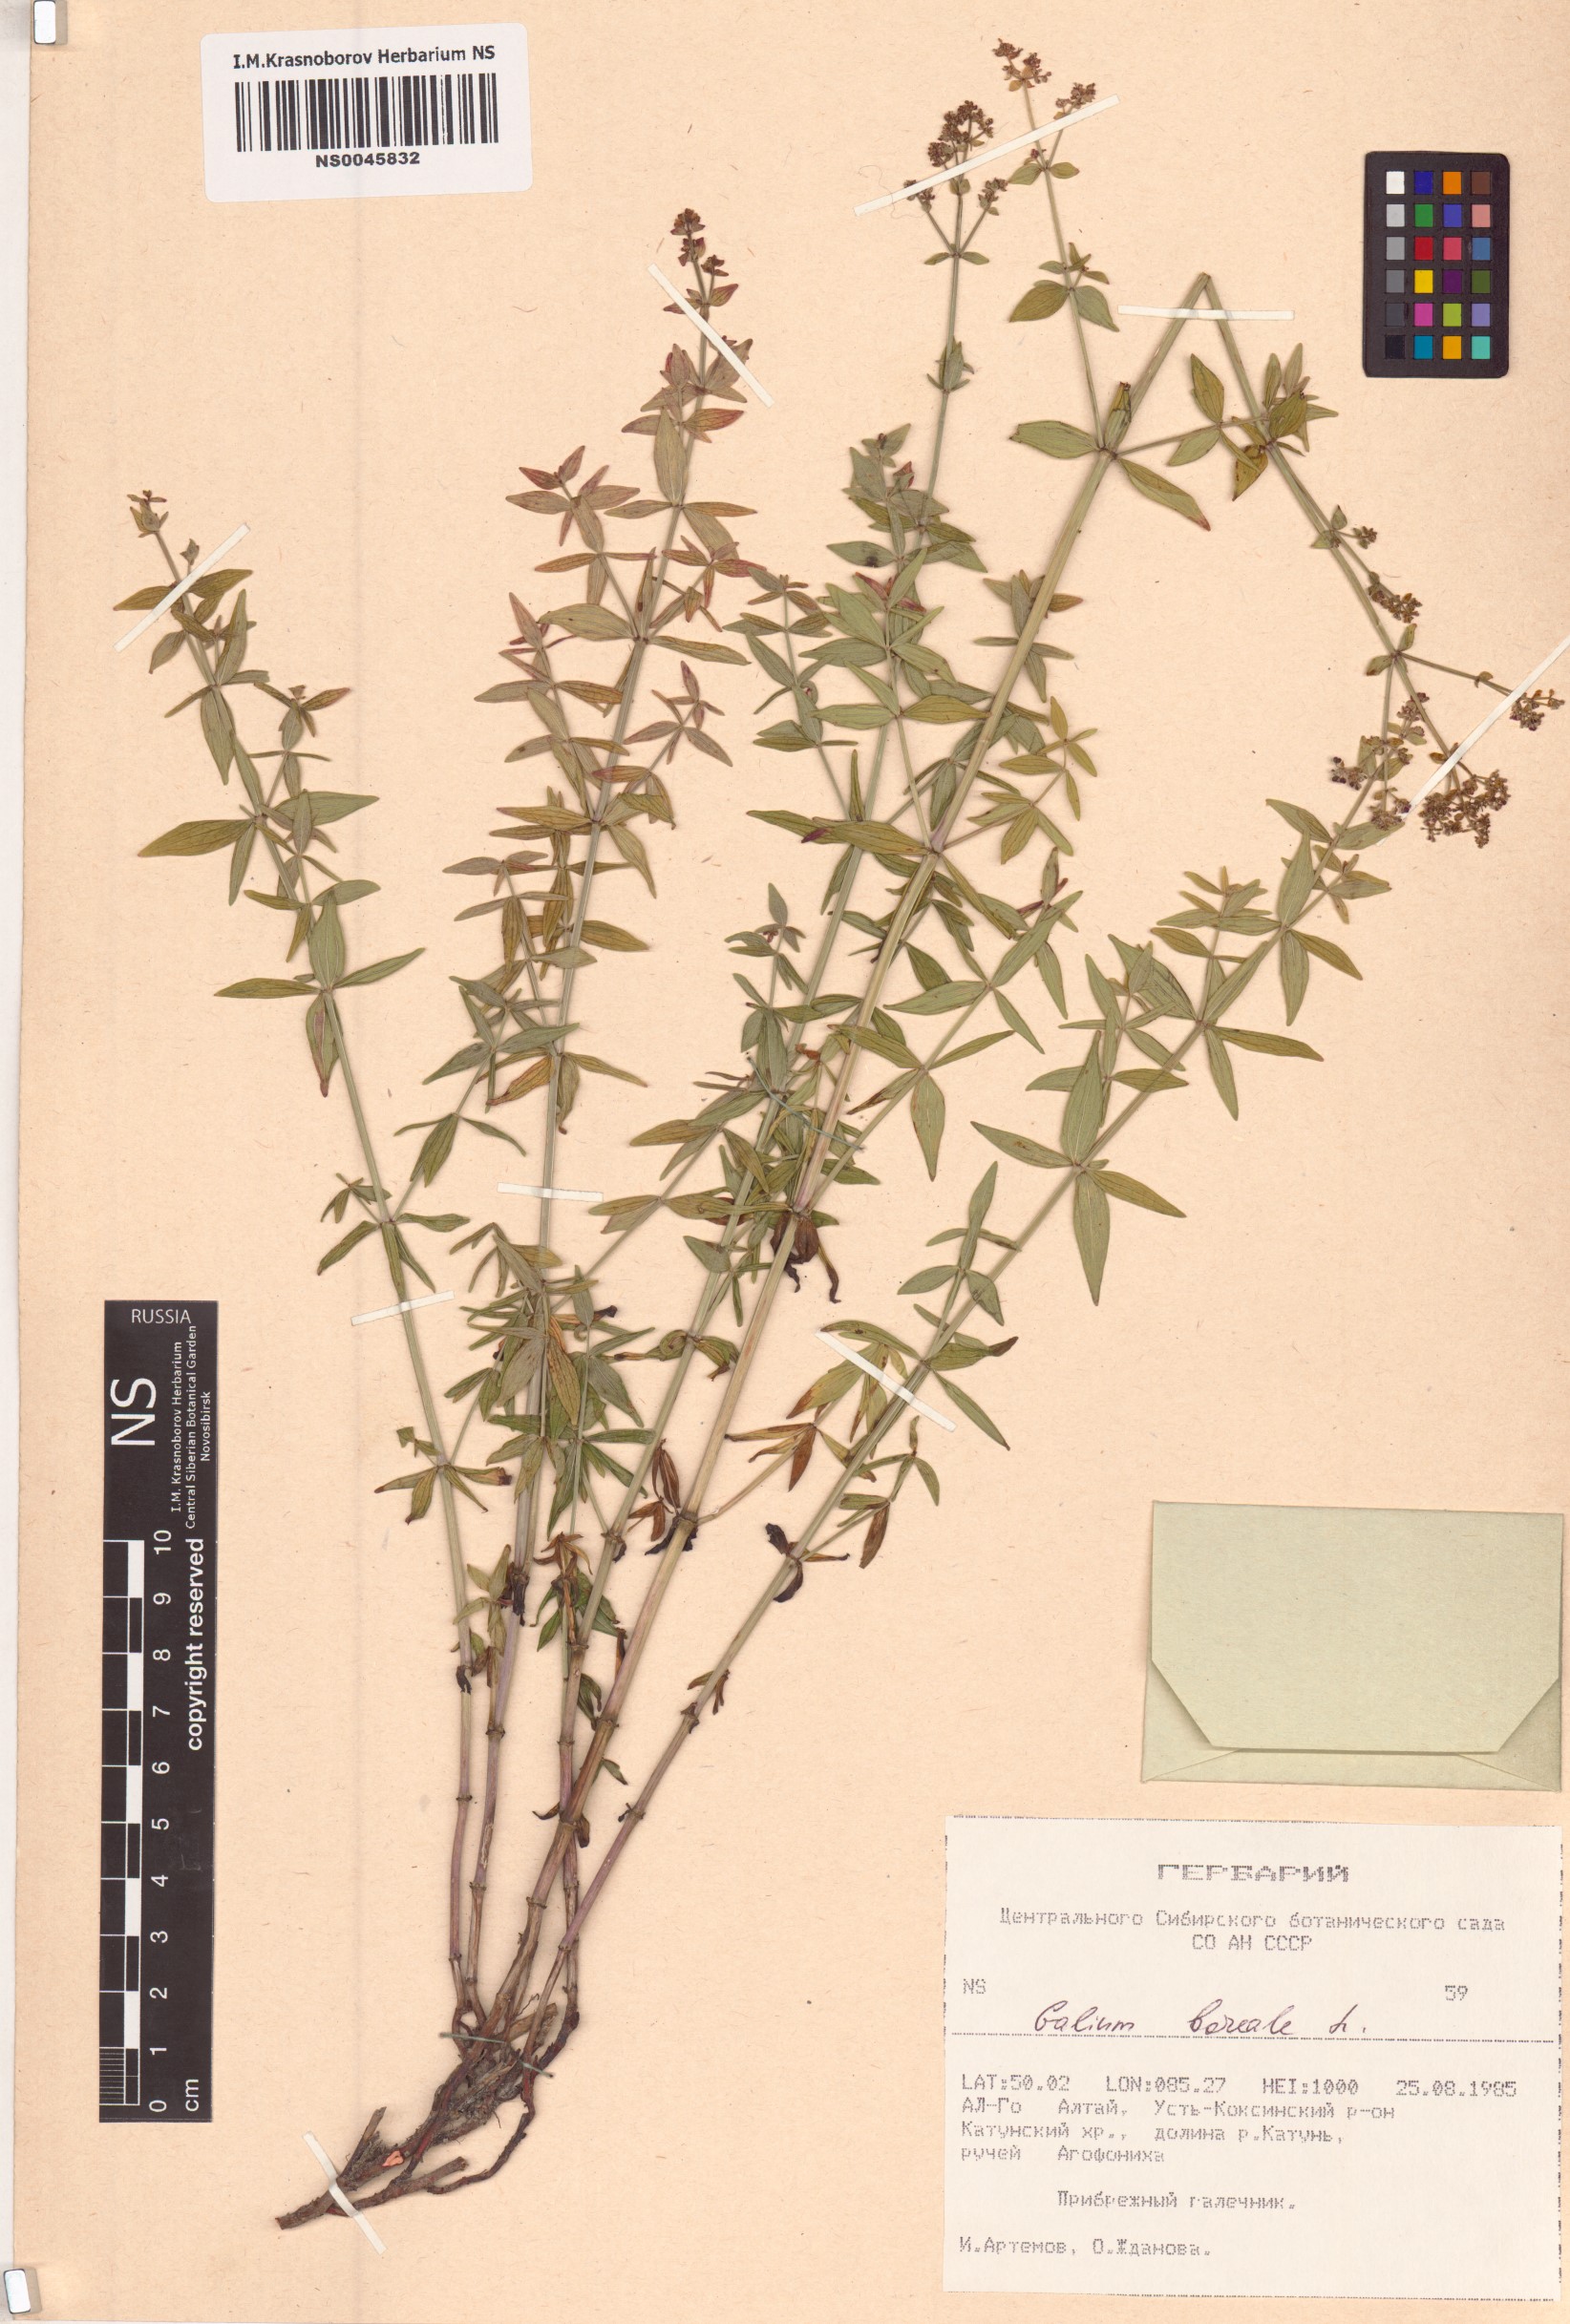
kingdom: Plantae
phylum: Tracheophyta
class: Magnoliopsida
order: Gentianales
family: Rubiaceae
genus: Galium
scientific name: Galium boreale
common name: Northern bedstraw
